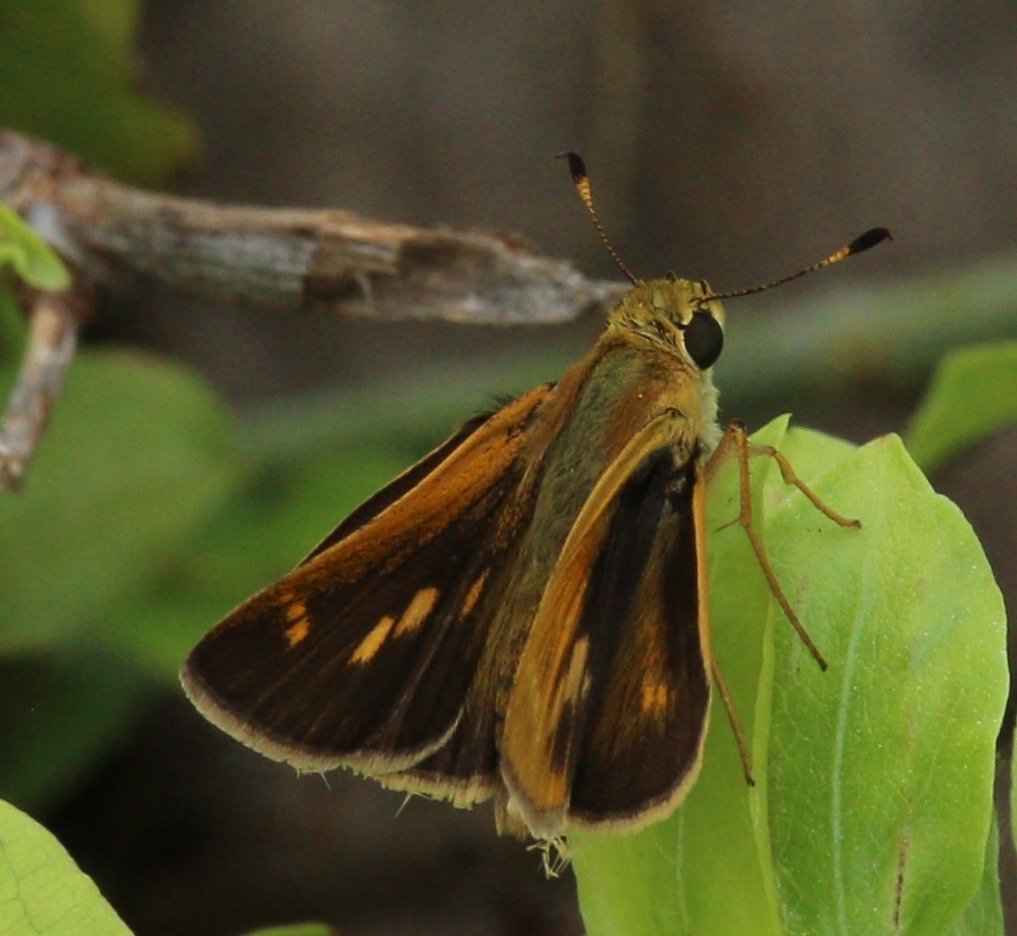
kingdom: Animalia
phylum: Arthropoda
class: Insecta
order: Lepidoptera
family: Hesperiidae
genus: Wallengrenia
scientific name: Wallengrenia otho
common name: Southern Broken-Dash
